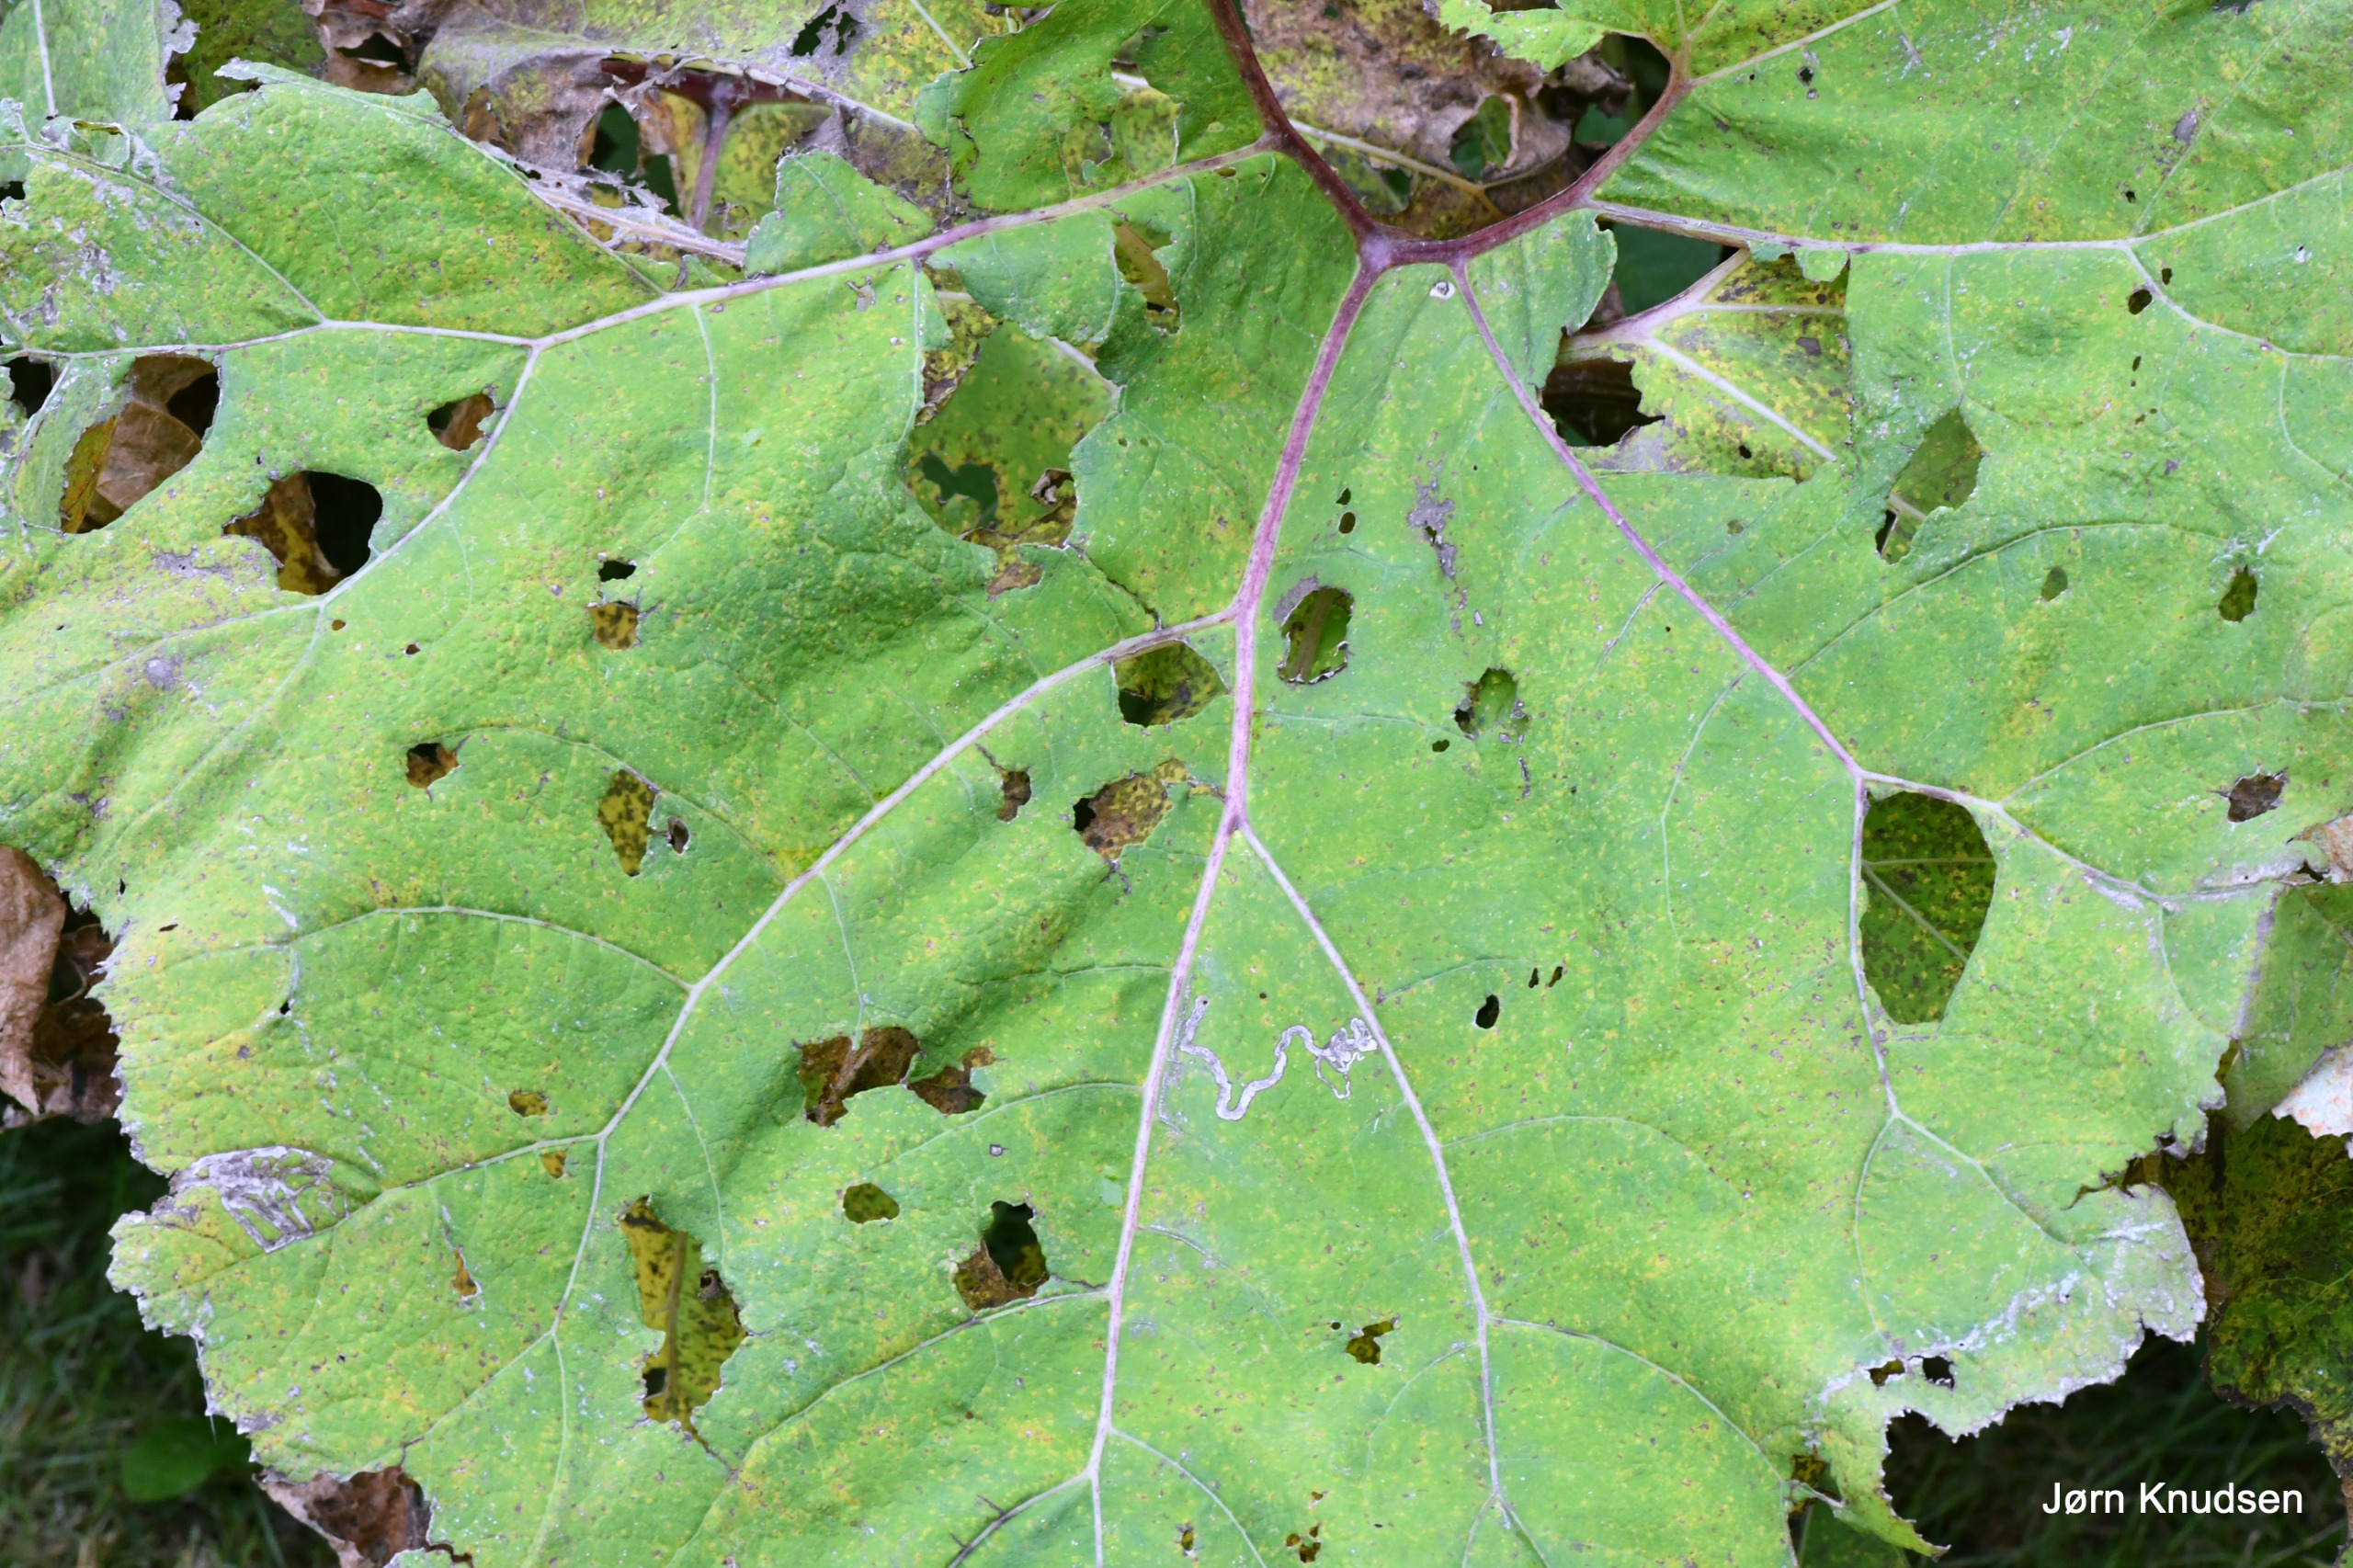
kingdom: Plantae
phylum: Tracheophyta
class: Magnoliopsida
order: Asterales
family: Asteraceae
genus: Tussilago
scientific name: Tussilago farfara
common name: Følfod
